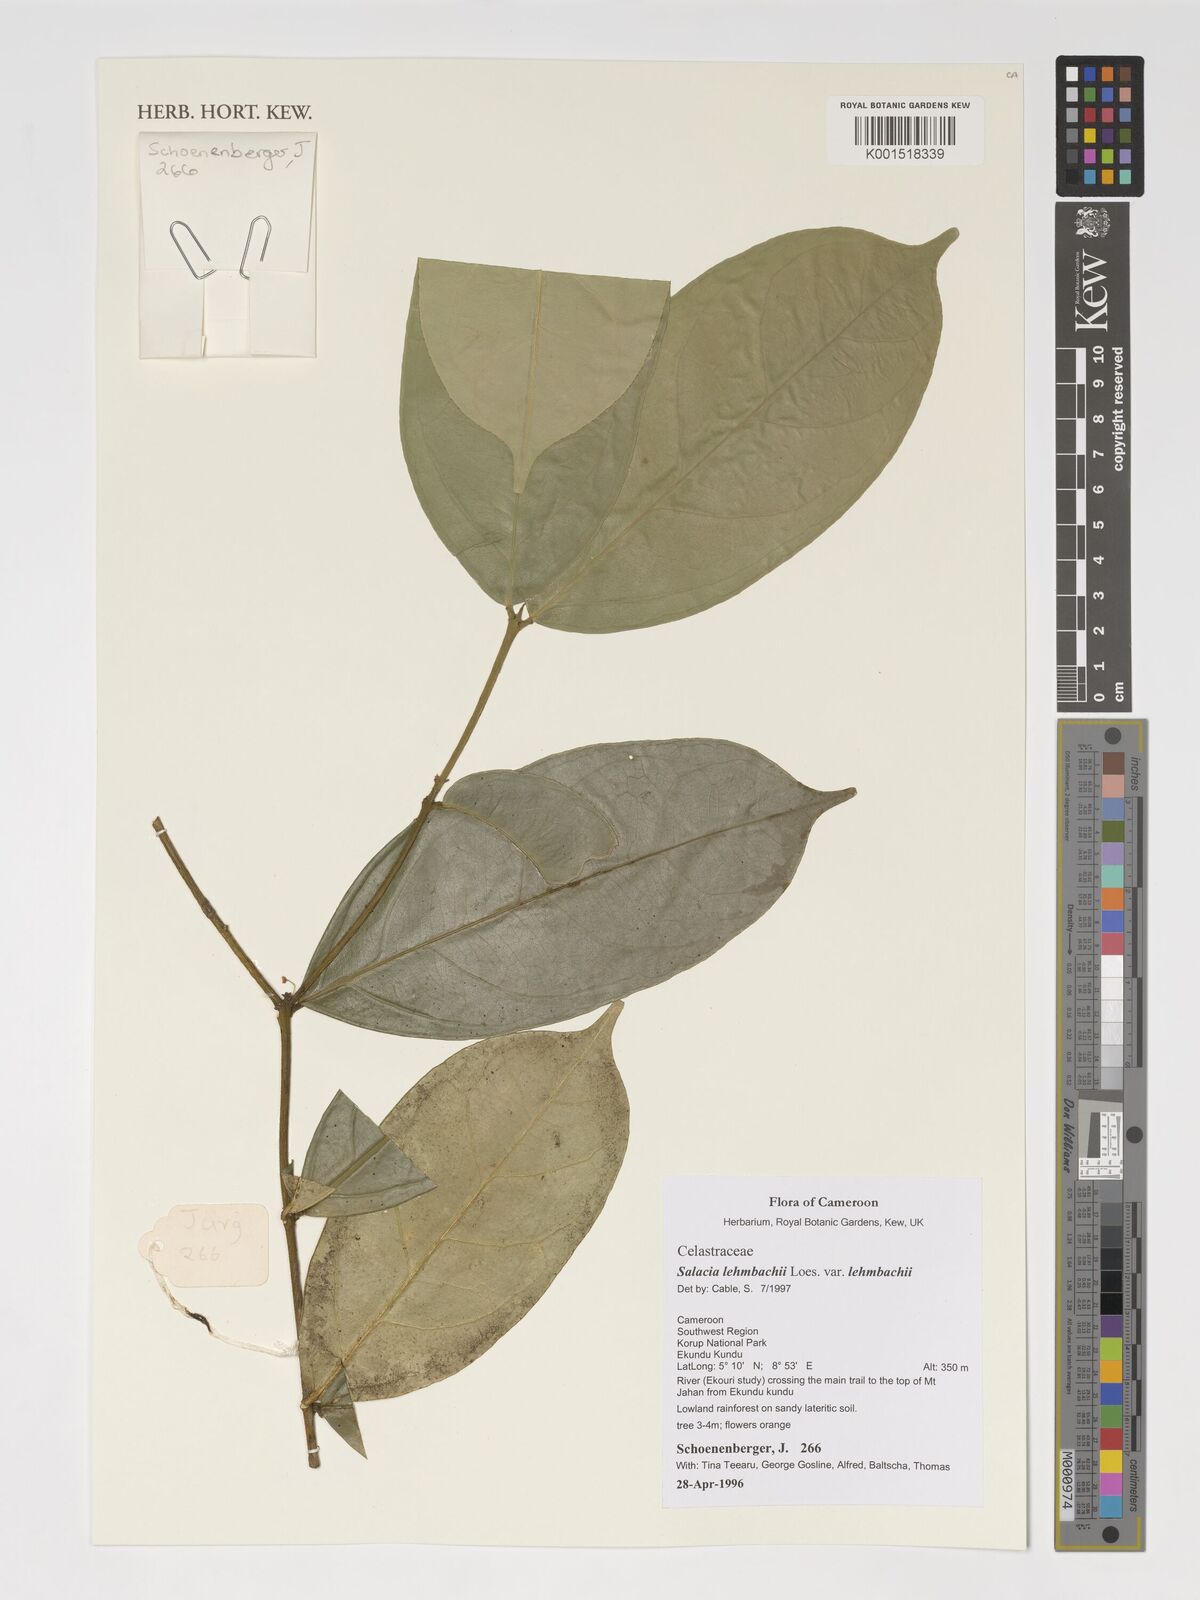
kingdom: Plantae
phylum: Tracheophyta
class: Magnoliopsida
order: Celastrales
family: Celastraceae
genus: Salacia
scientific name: Salacia lehmbachii
